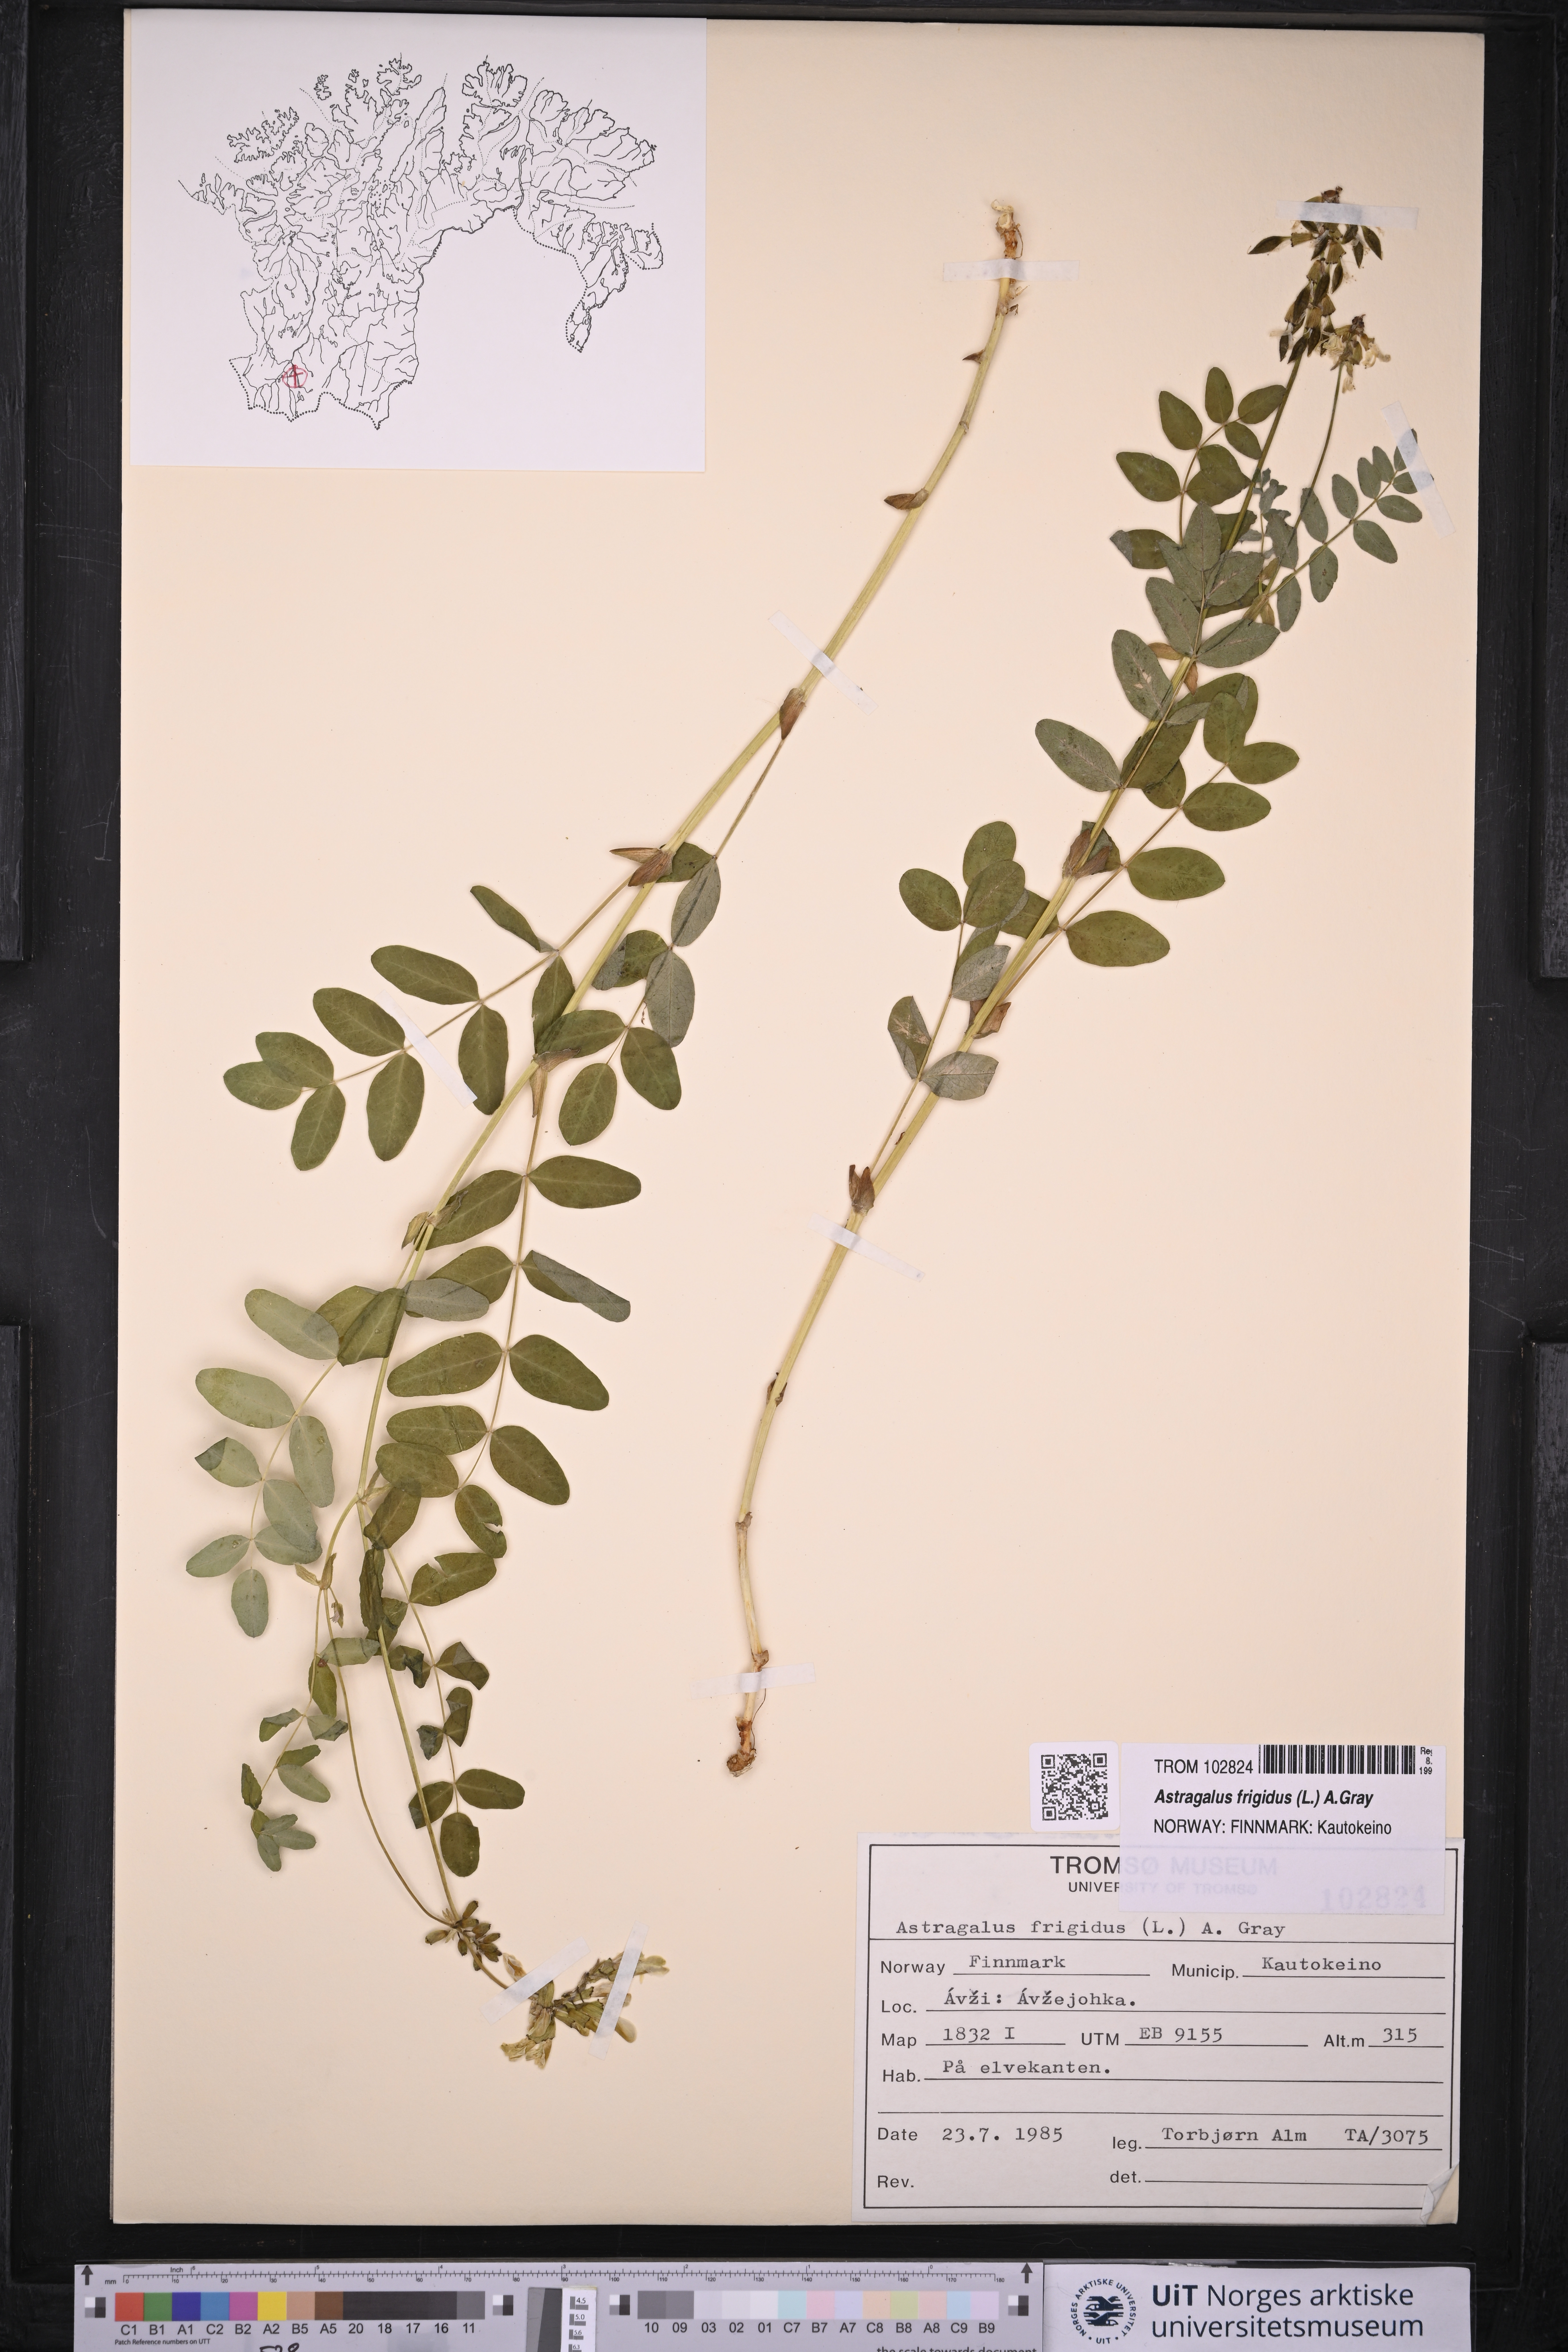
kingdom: Plantae
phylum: Tracheophyta
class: Magnoliopsida
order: Fabales
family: Fabaceae
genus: Astragalus
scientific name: Astragalus frigidus
